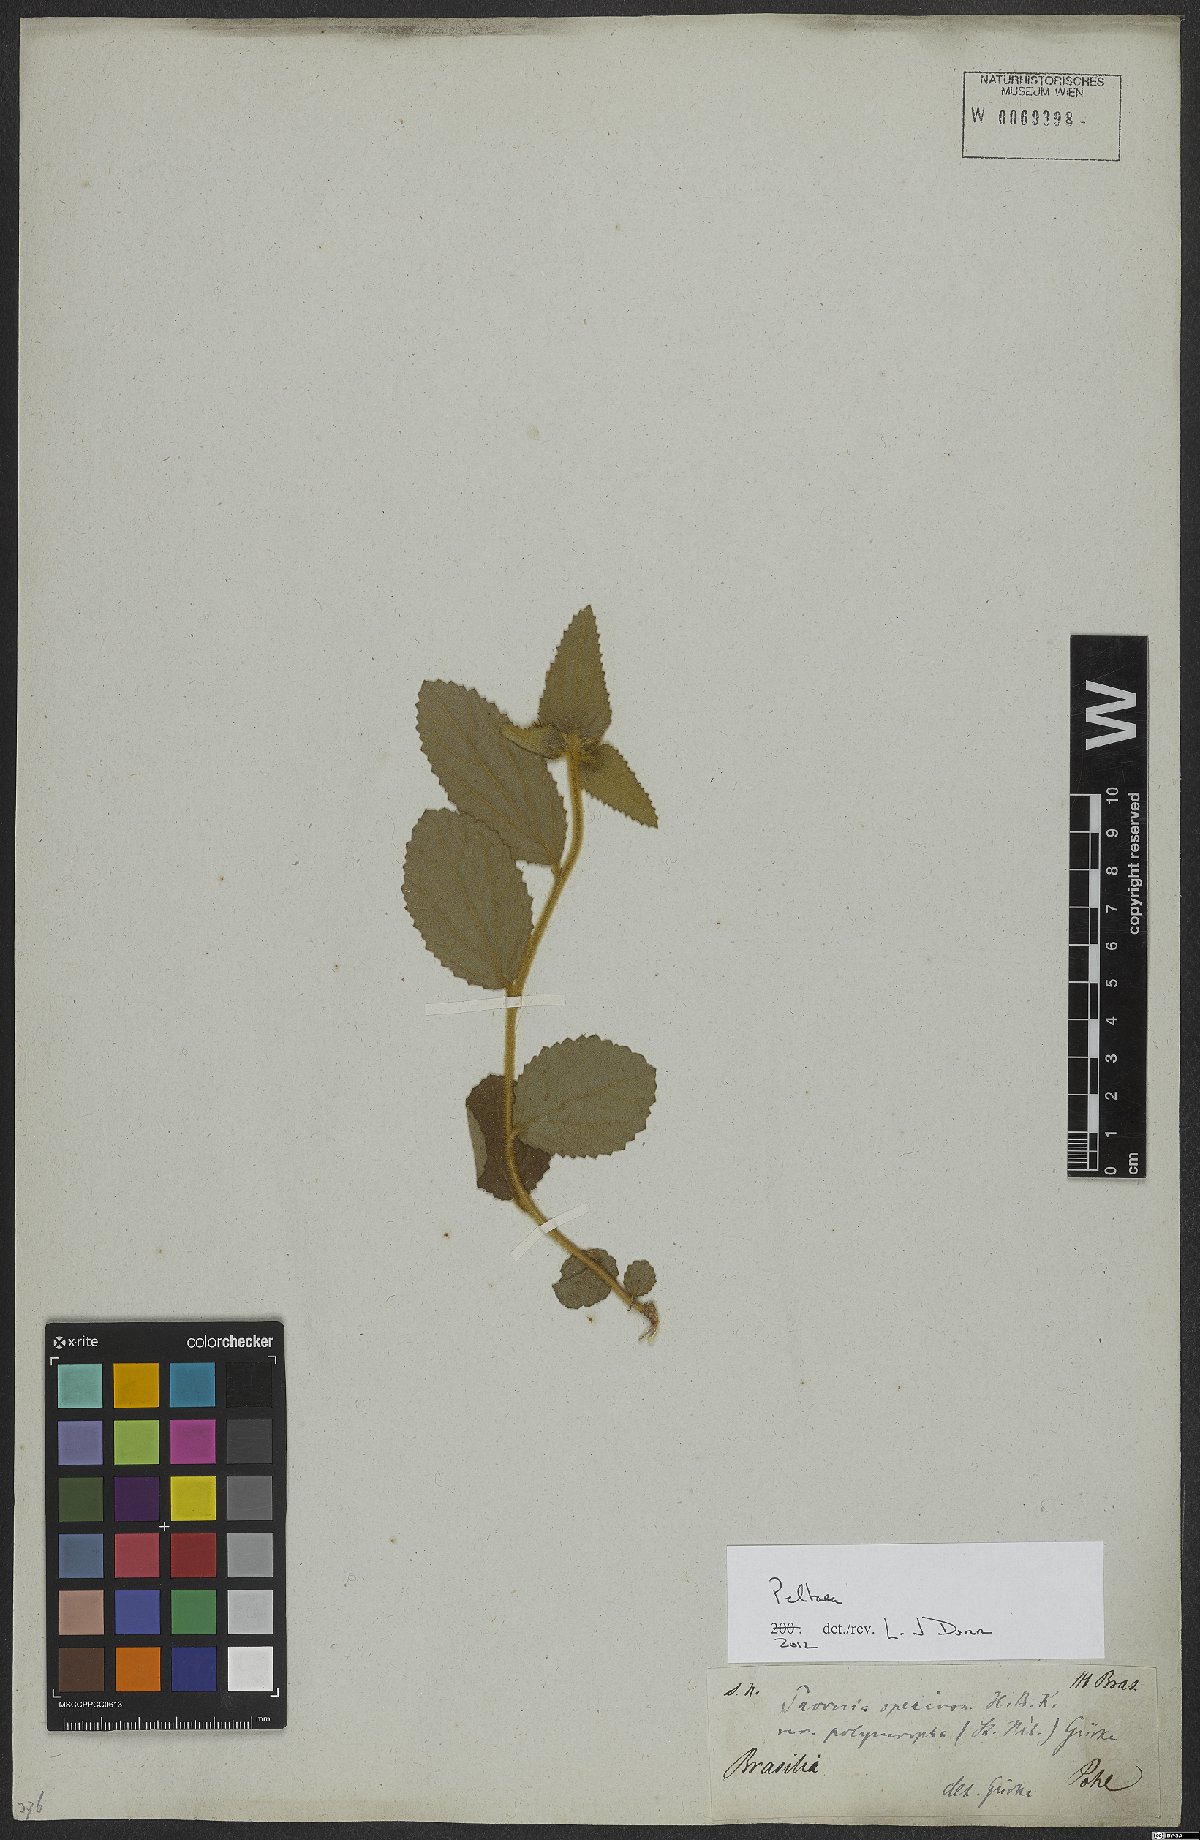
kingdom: Plantae
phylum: Tracheophyta
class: Magnoliopsida
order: Malvales
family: Malvaceae
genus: Peltaea
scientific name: Peltaea
